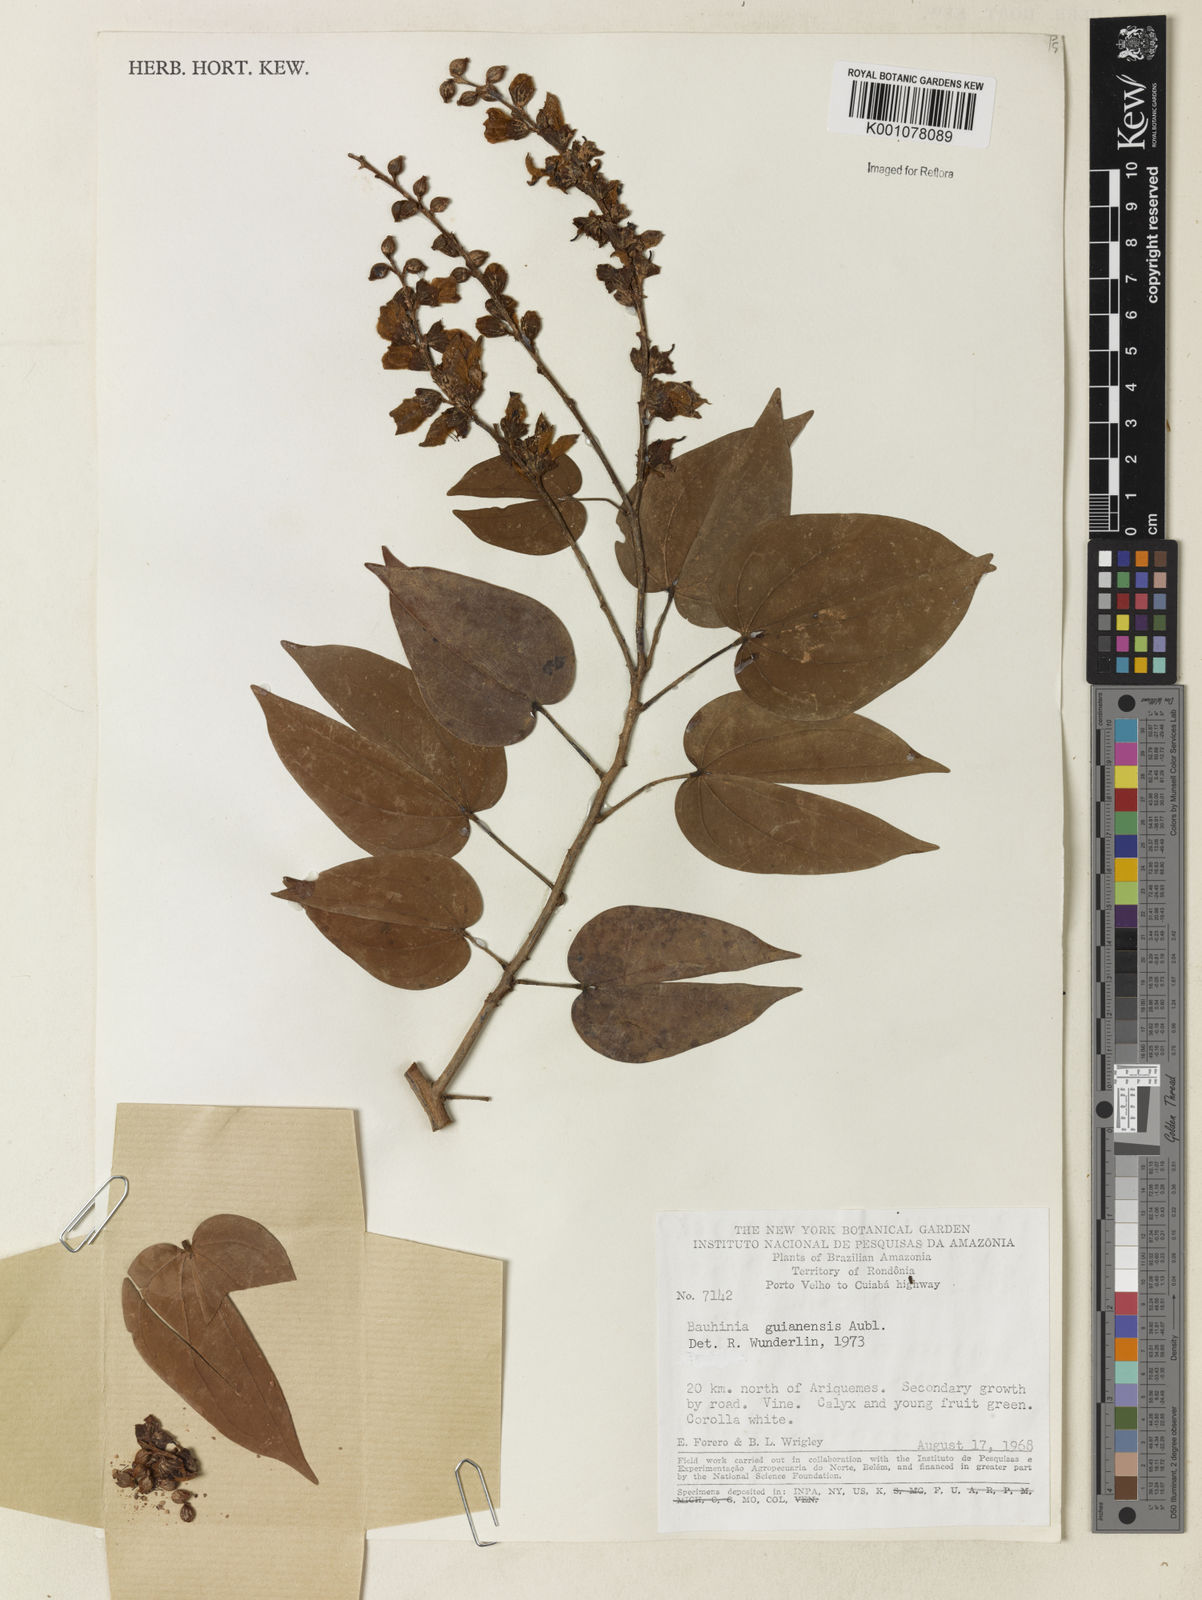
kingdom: Plantae
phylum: Tracheophyta
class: Magnoliopsida
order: Fabales
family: Fabaceae
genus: Schnella
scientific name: Schnella guianensis
